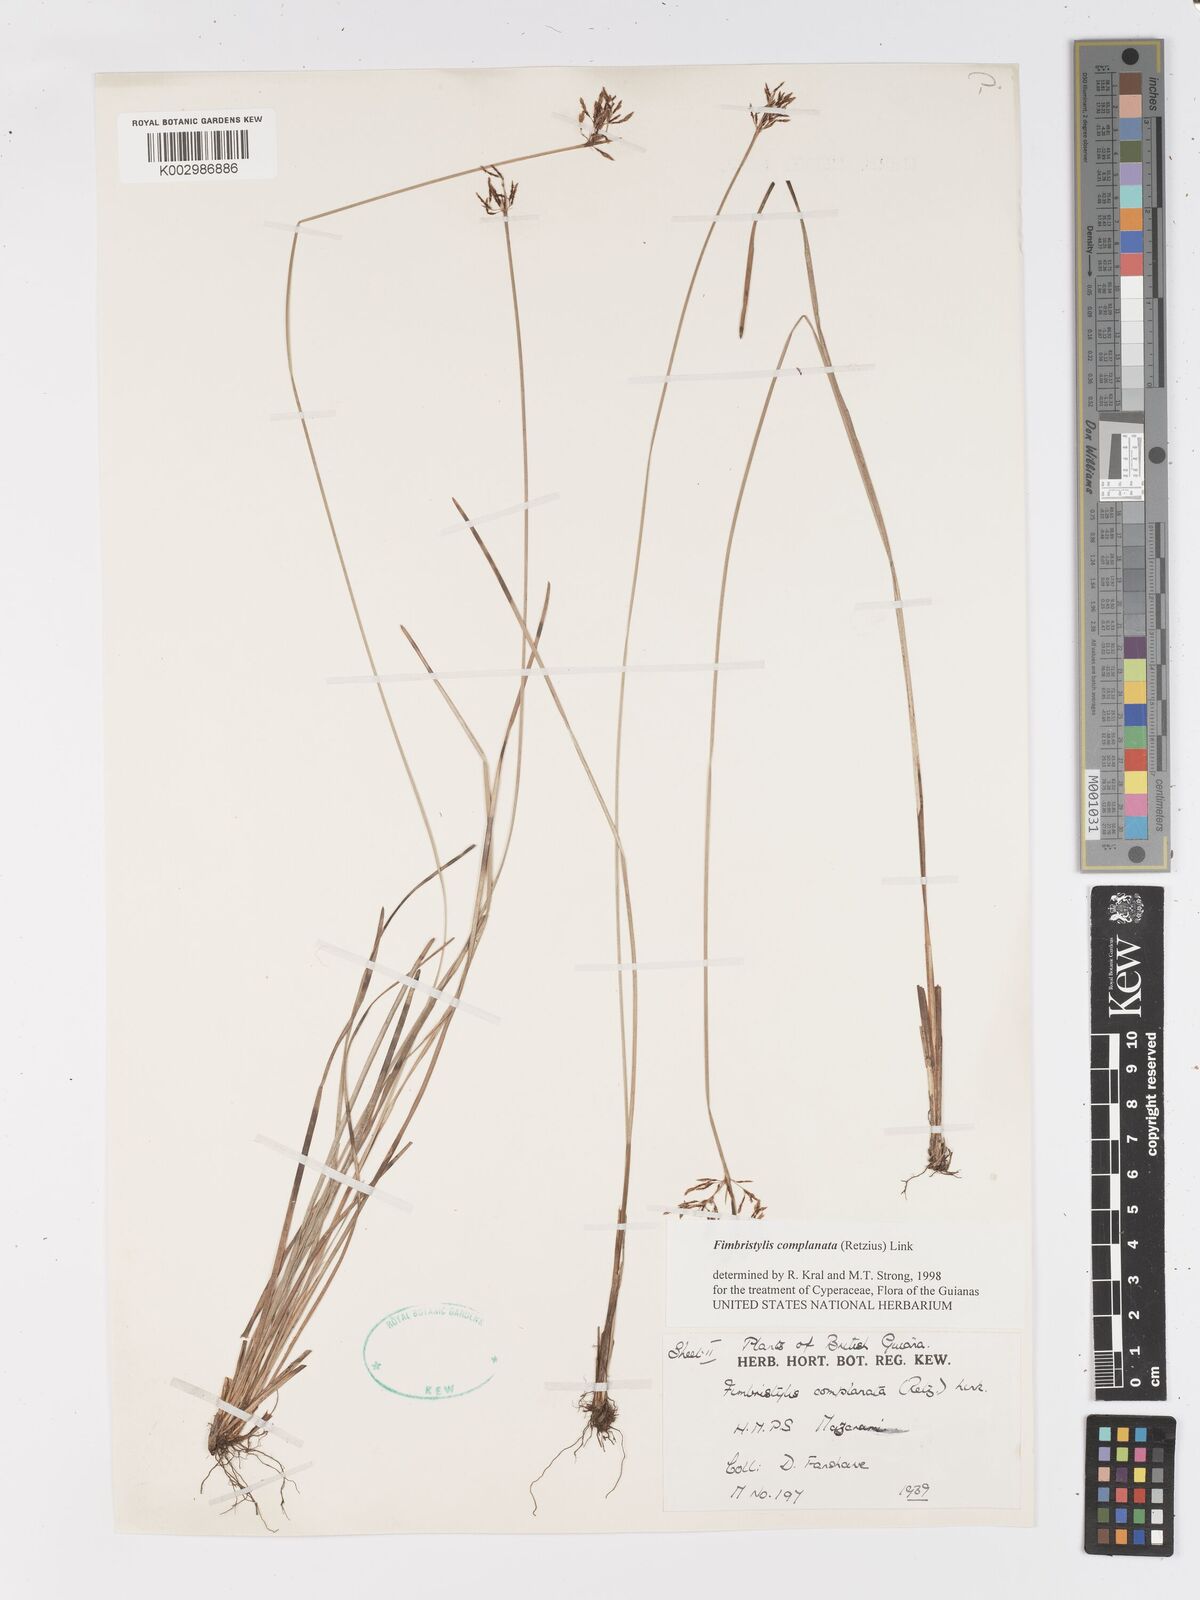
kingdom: Plantae
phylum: Tracheophyta
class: Liliopsida
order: Poales
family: Cyperaceae
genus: Fimbristylis
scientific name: Fimbristylis complanata
